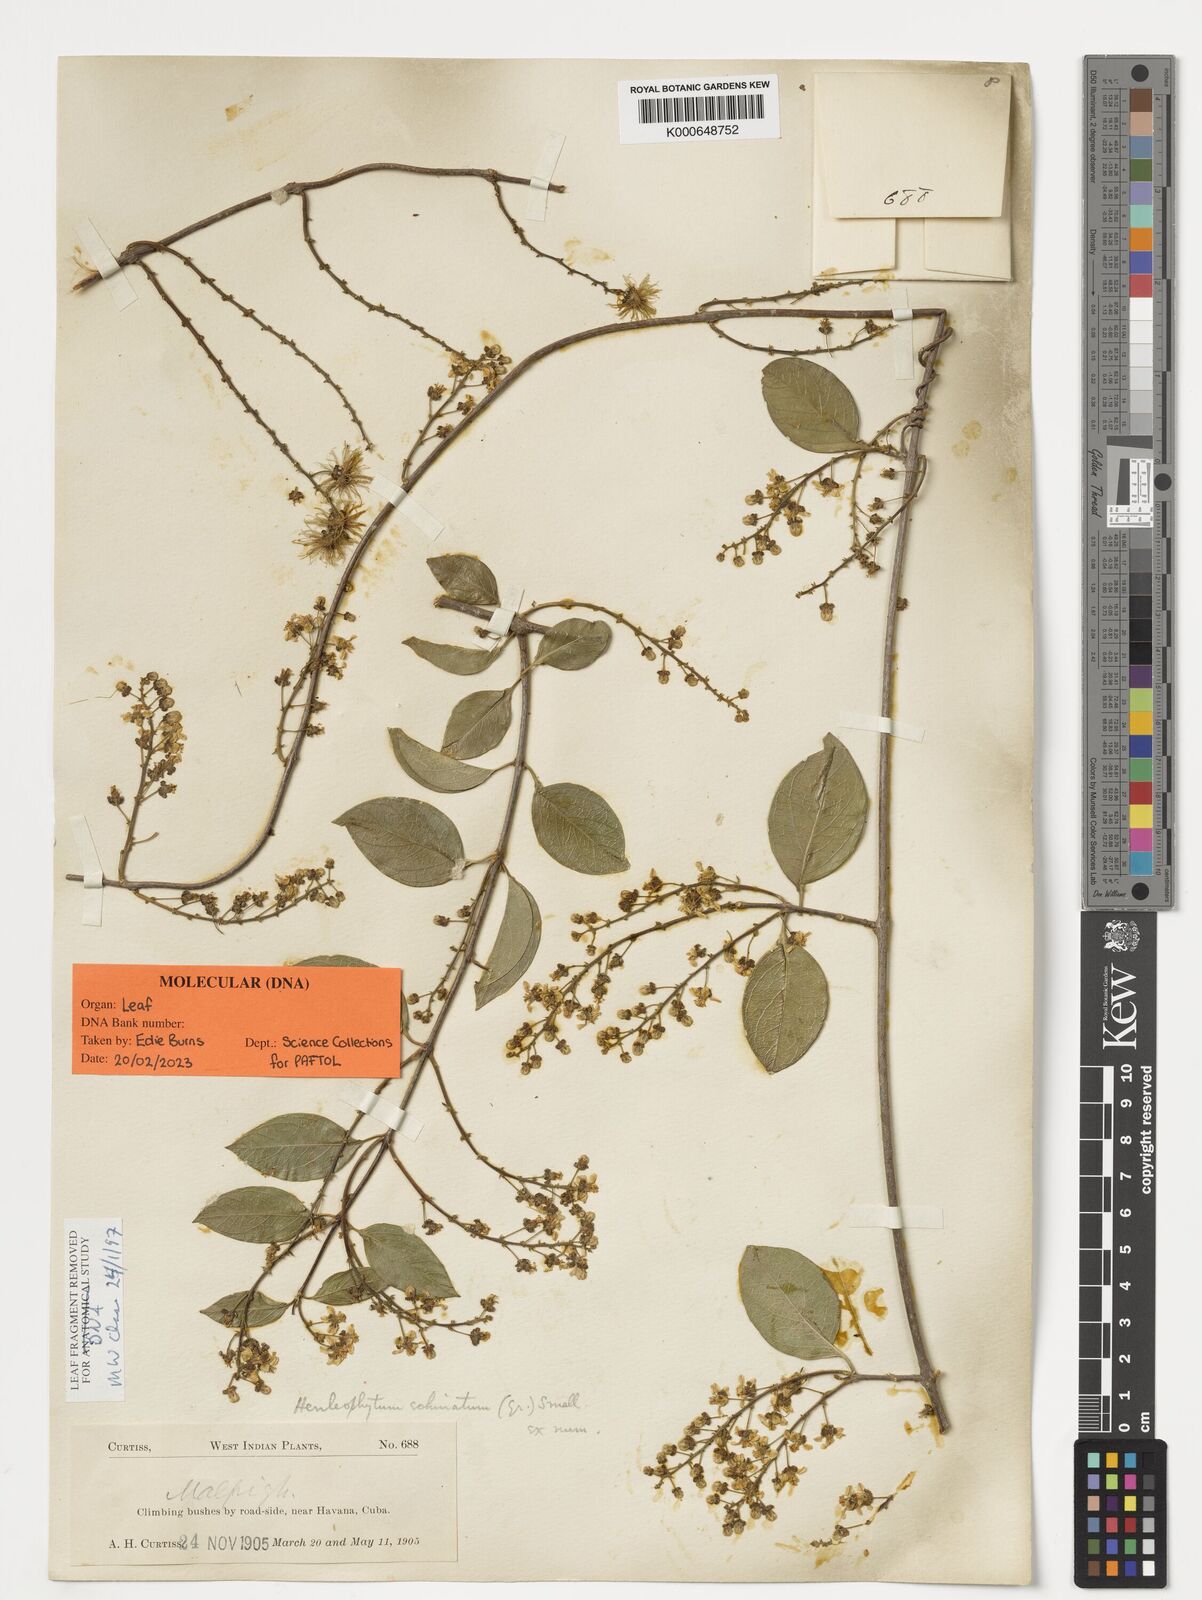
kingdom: Plantae
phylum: Tracheophyta
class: Magnoliopsida
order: Malpighiales
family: Malpighiaceae
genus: Henleophytum
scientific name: Henleophytum echinatum
